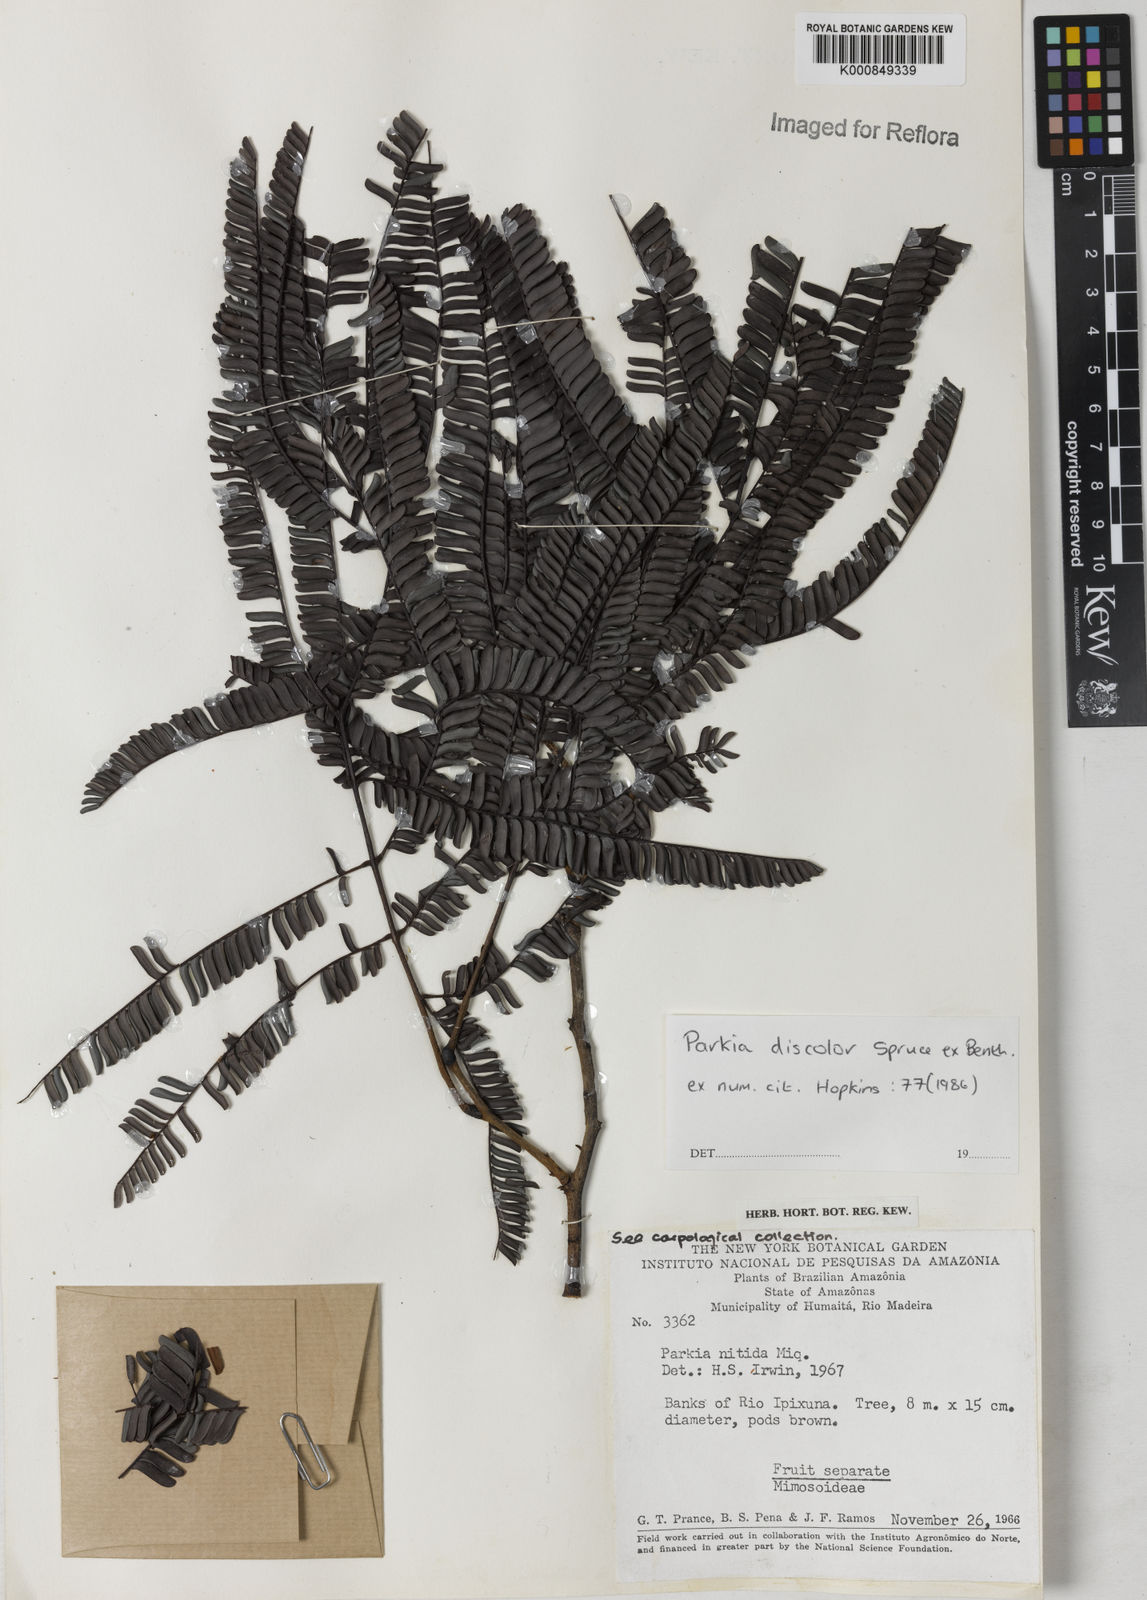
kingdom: Plantae
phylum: Tracheophyta
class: Magnoliopsida
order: Fabales
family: Fabaceae
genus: Parkia
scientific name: Parkia discolor
